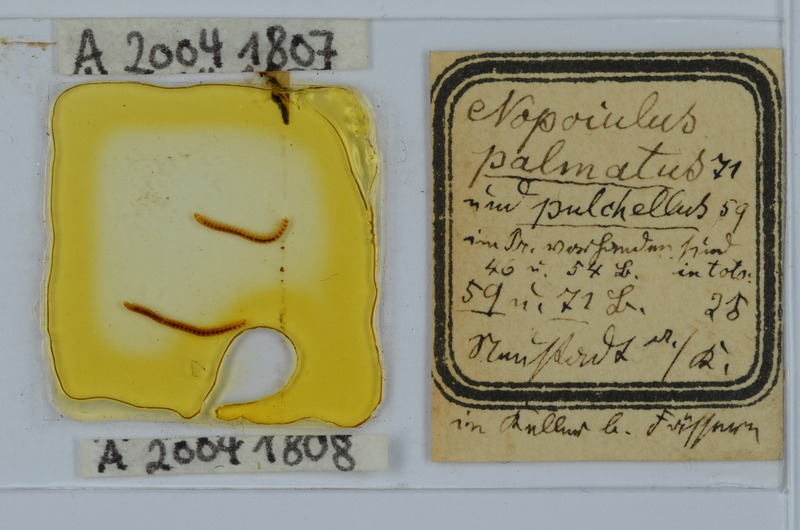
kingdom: Animalia
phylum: Arthropoda
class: Diplopoda
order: Julida
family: Blaniulidae
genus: Nopoiulus
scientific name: Nopoiulus kochii
